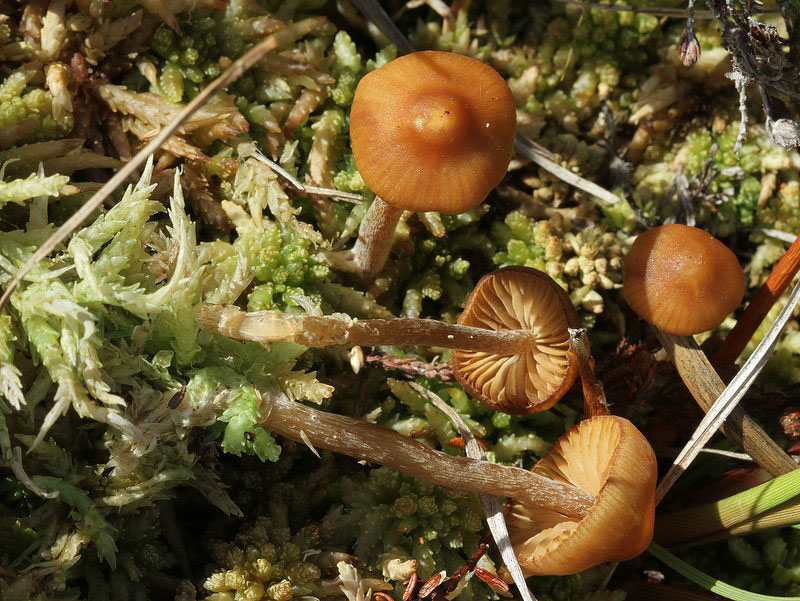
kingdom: Fungi
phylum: Basidiomycota
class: Agaricomycetes
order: Agaricales
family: Hymenogastraceae
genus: Galerina
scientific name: Galerina hybrida
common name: hængesæk-hjelmhat
